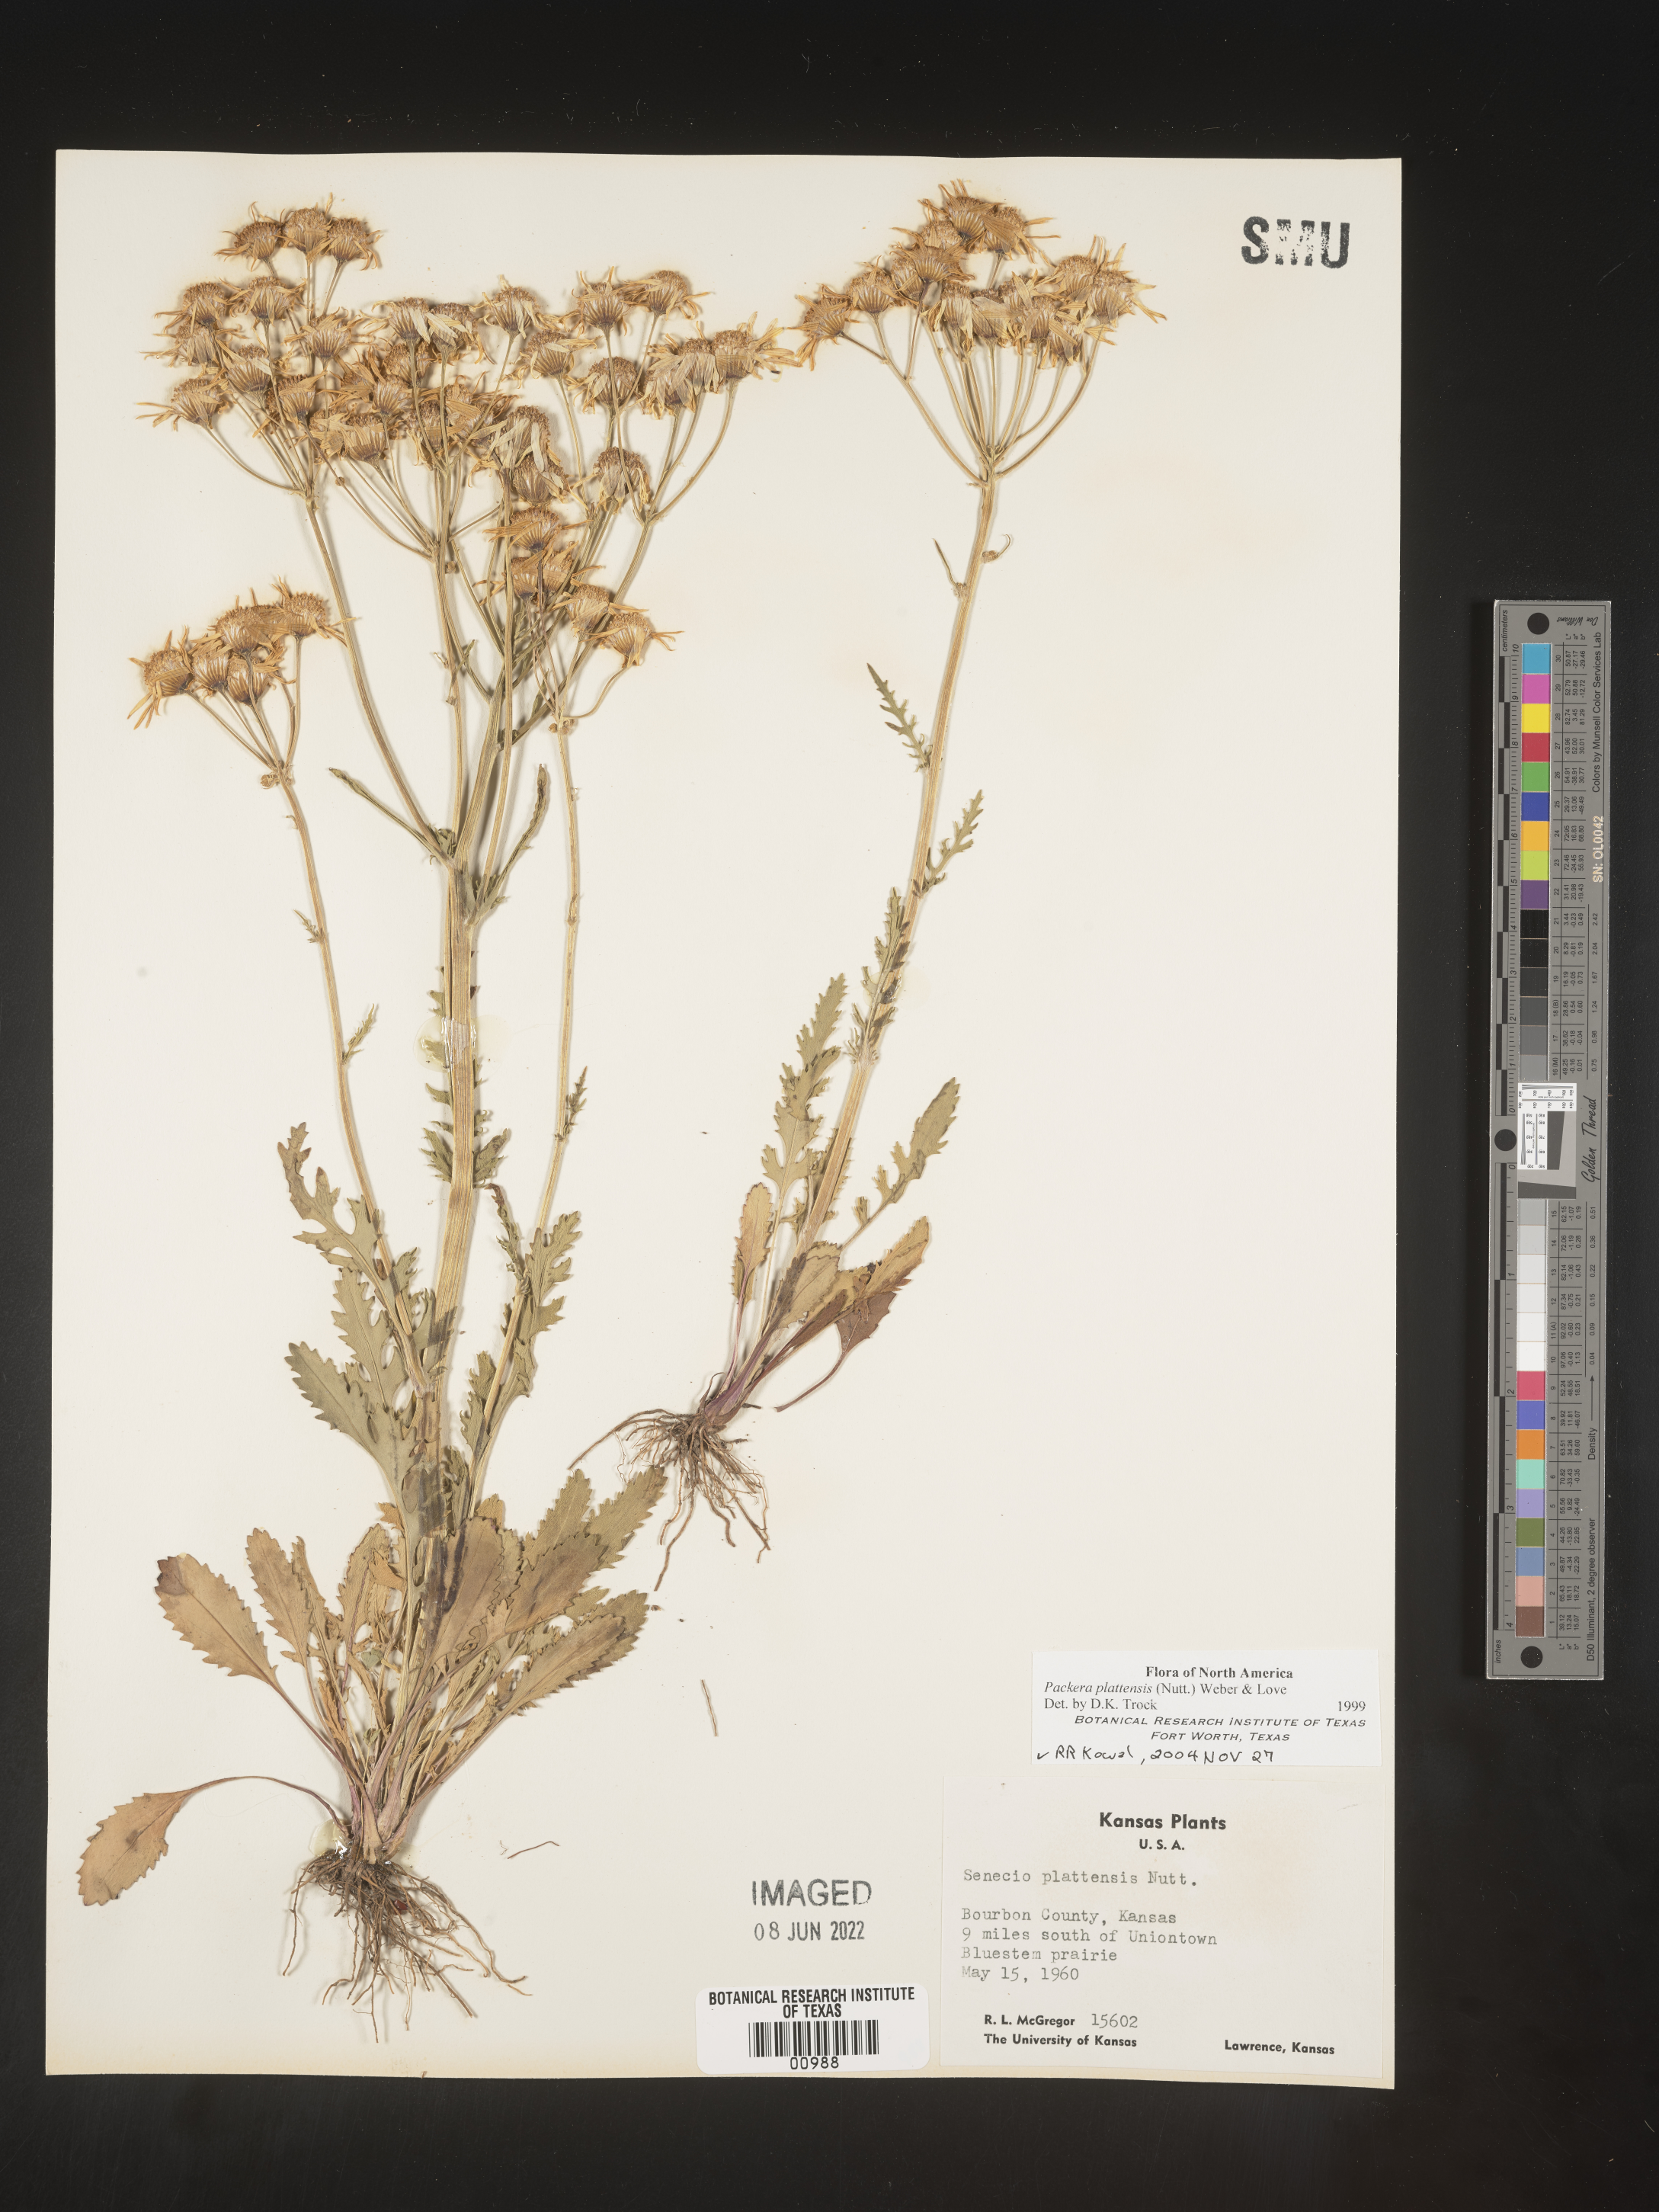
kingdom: Plantae
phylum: Tracheophyta
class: Magnoliopsida
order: Asterales
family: Asteraceae
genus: Packera
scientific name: Packera plattensis
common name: Prairie groundsel
